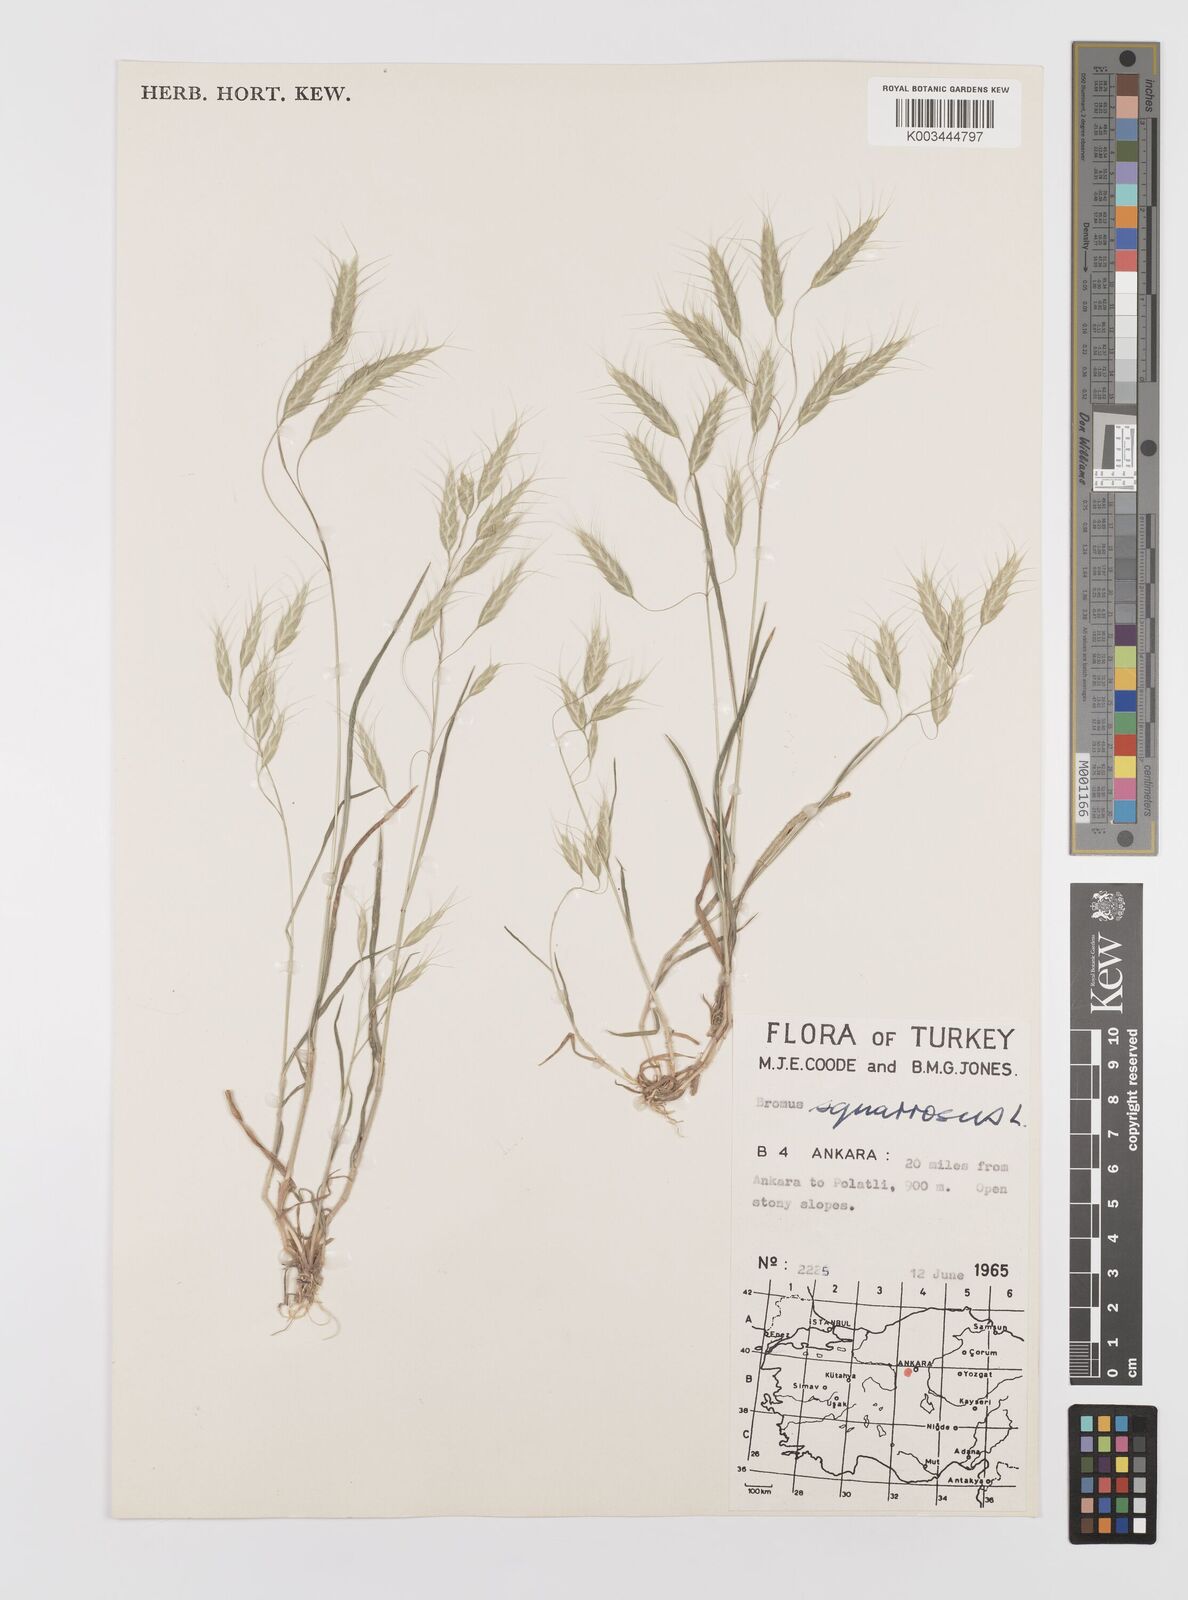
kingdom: Plantae
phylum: Tracheophyta
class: Liliopsida
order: Poales
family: Poaceae
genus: Bromus
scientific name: Bromus squarrosus
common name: Corn brome
